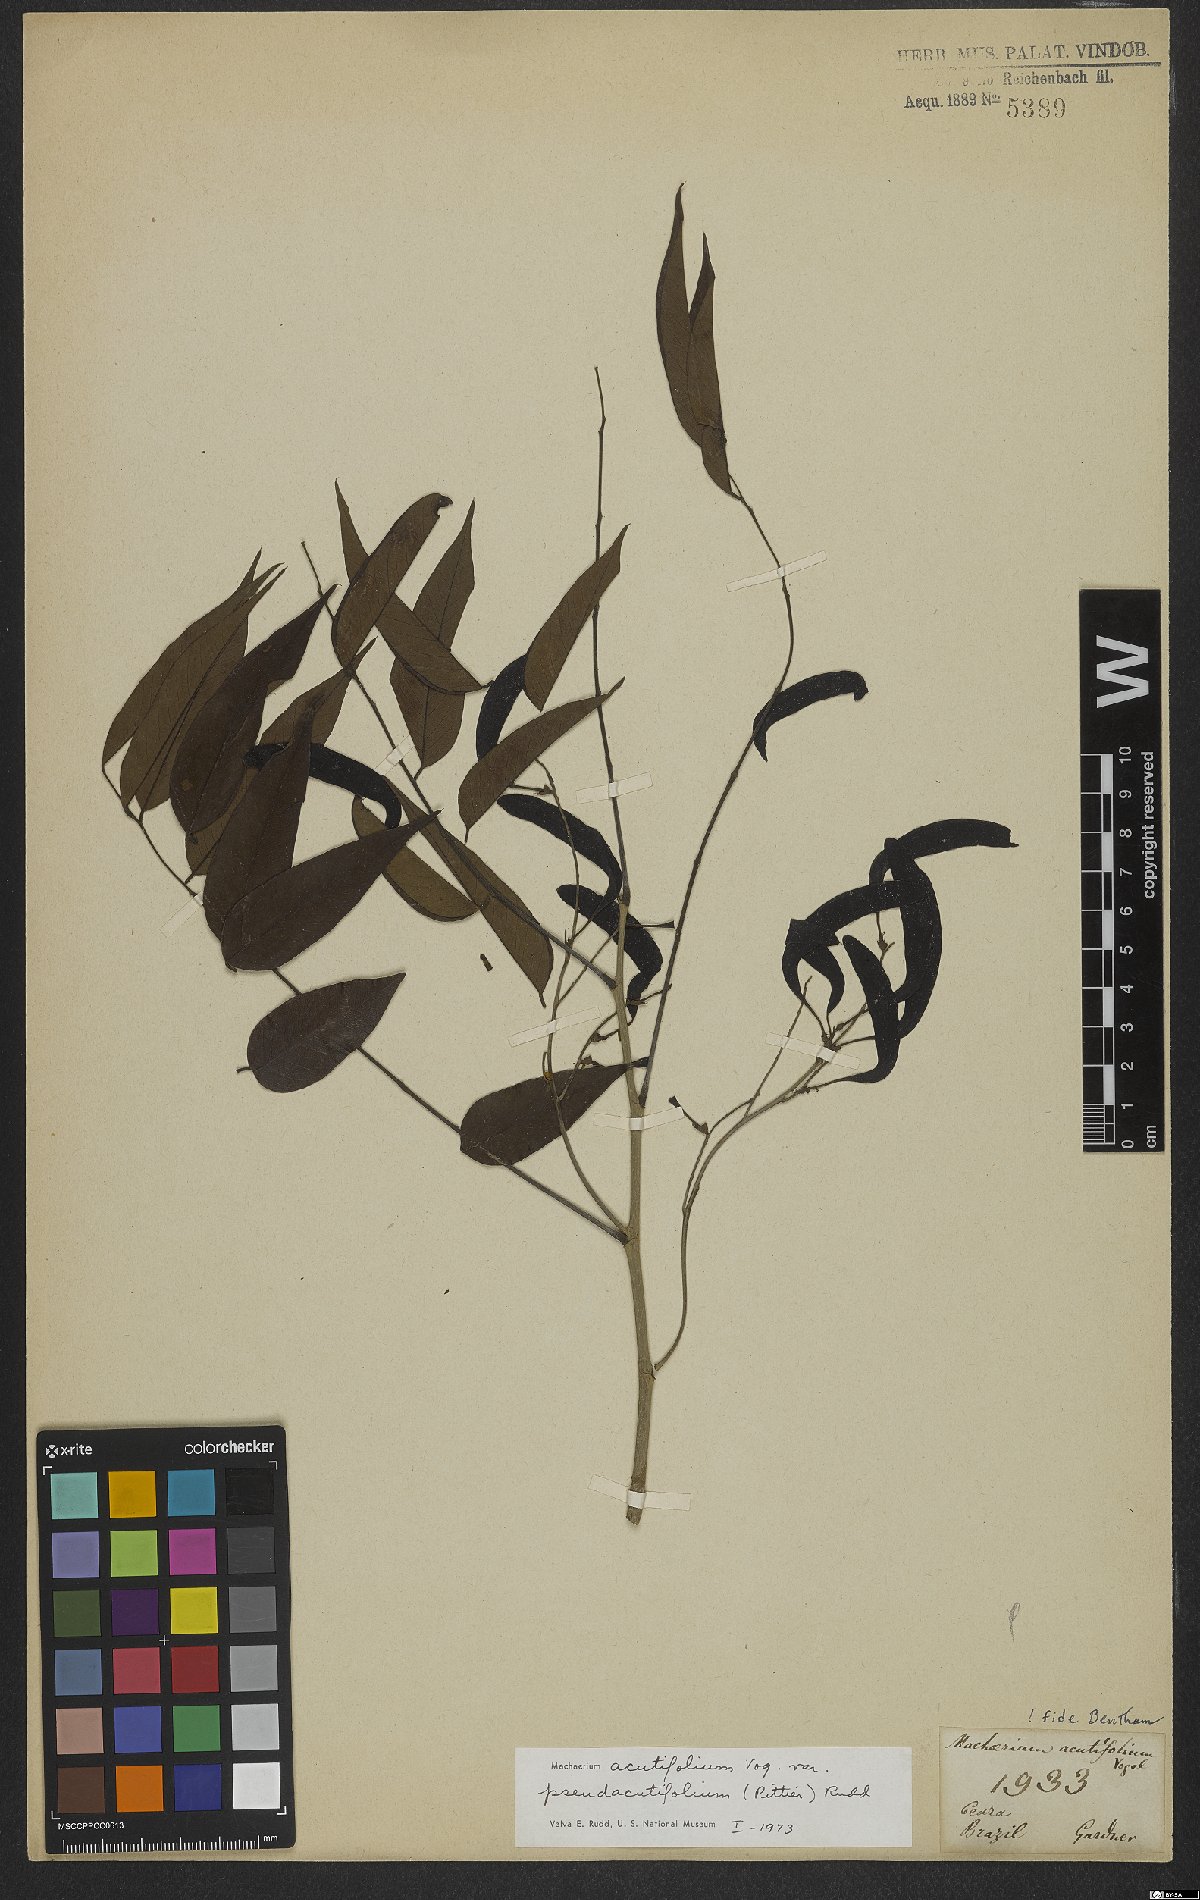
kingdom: Plantae
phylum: Tracheophyta
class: Magnoliopsida
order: Fabales
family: Fabaceae
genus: Machaerium
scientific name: Machaerium acutifolium
